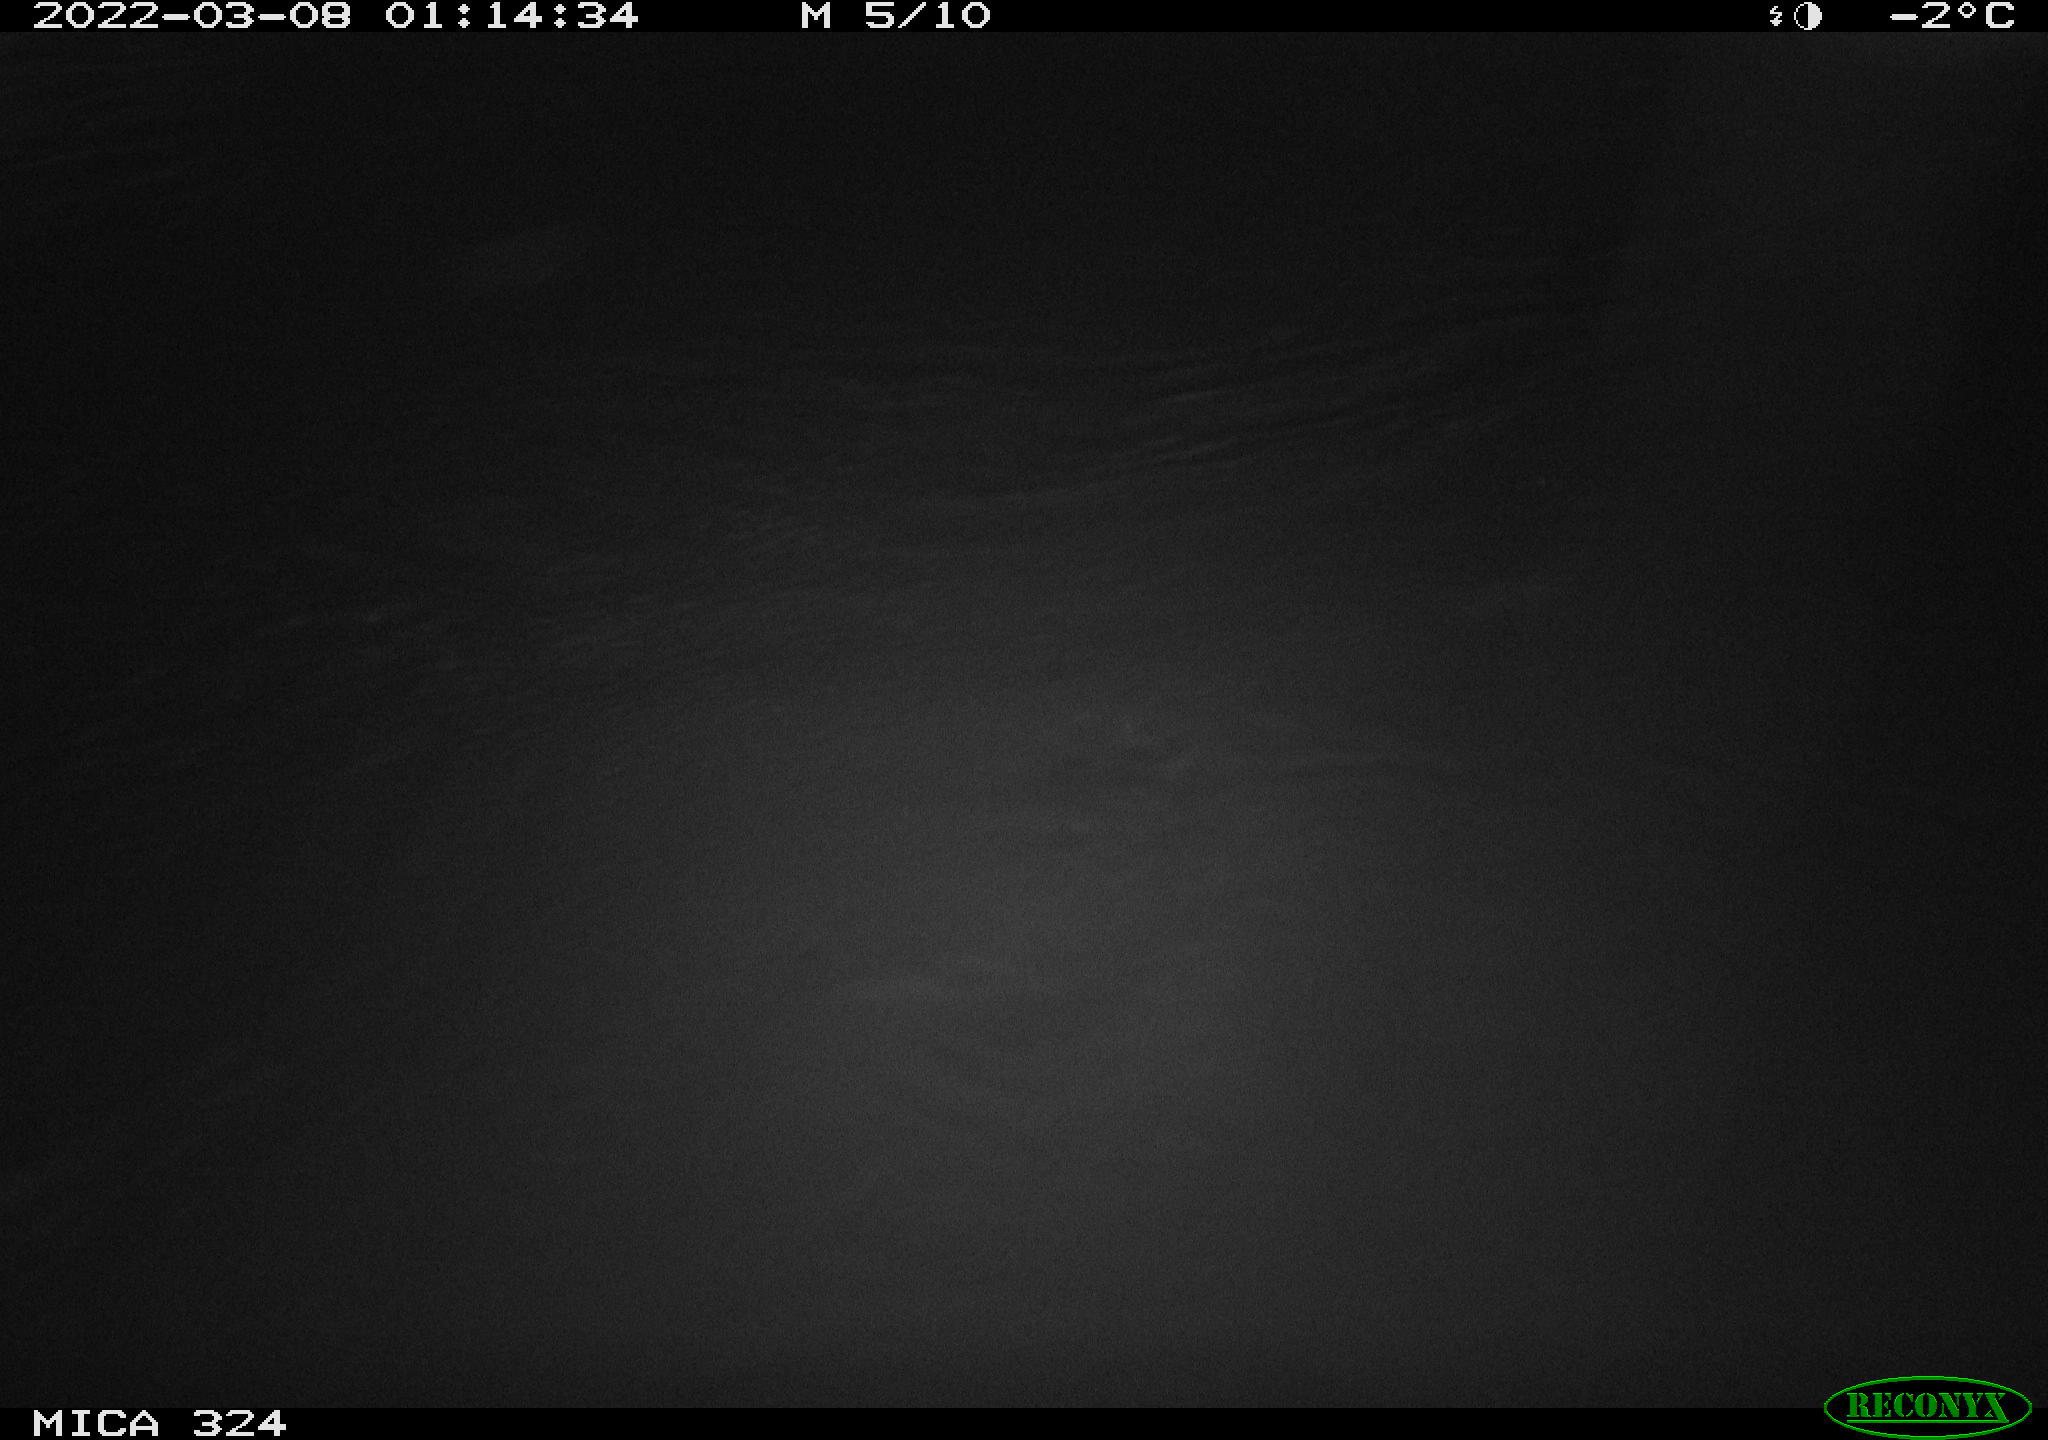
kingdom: Animalia
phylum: Chordata
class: Aves
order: Anseriformes
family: Anatidae
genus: Anas
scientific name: Anas platyrhynchos
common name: Mallard
